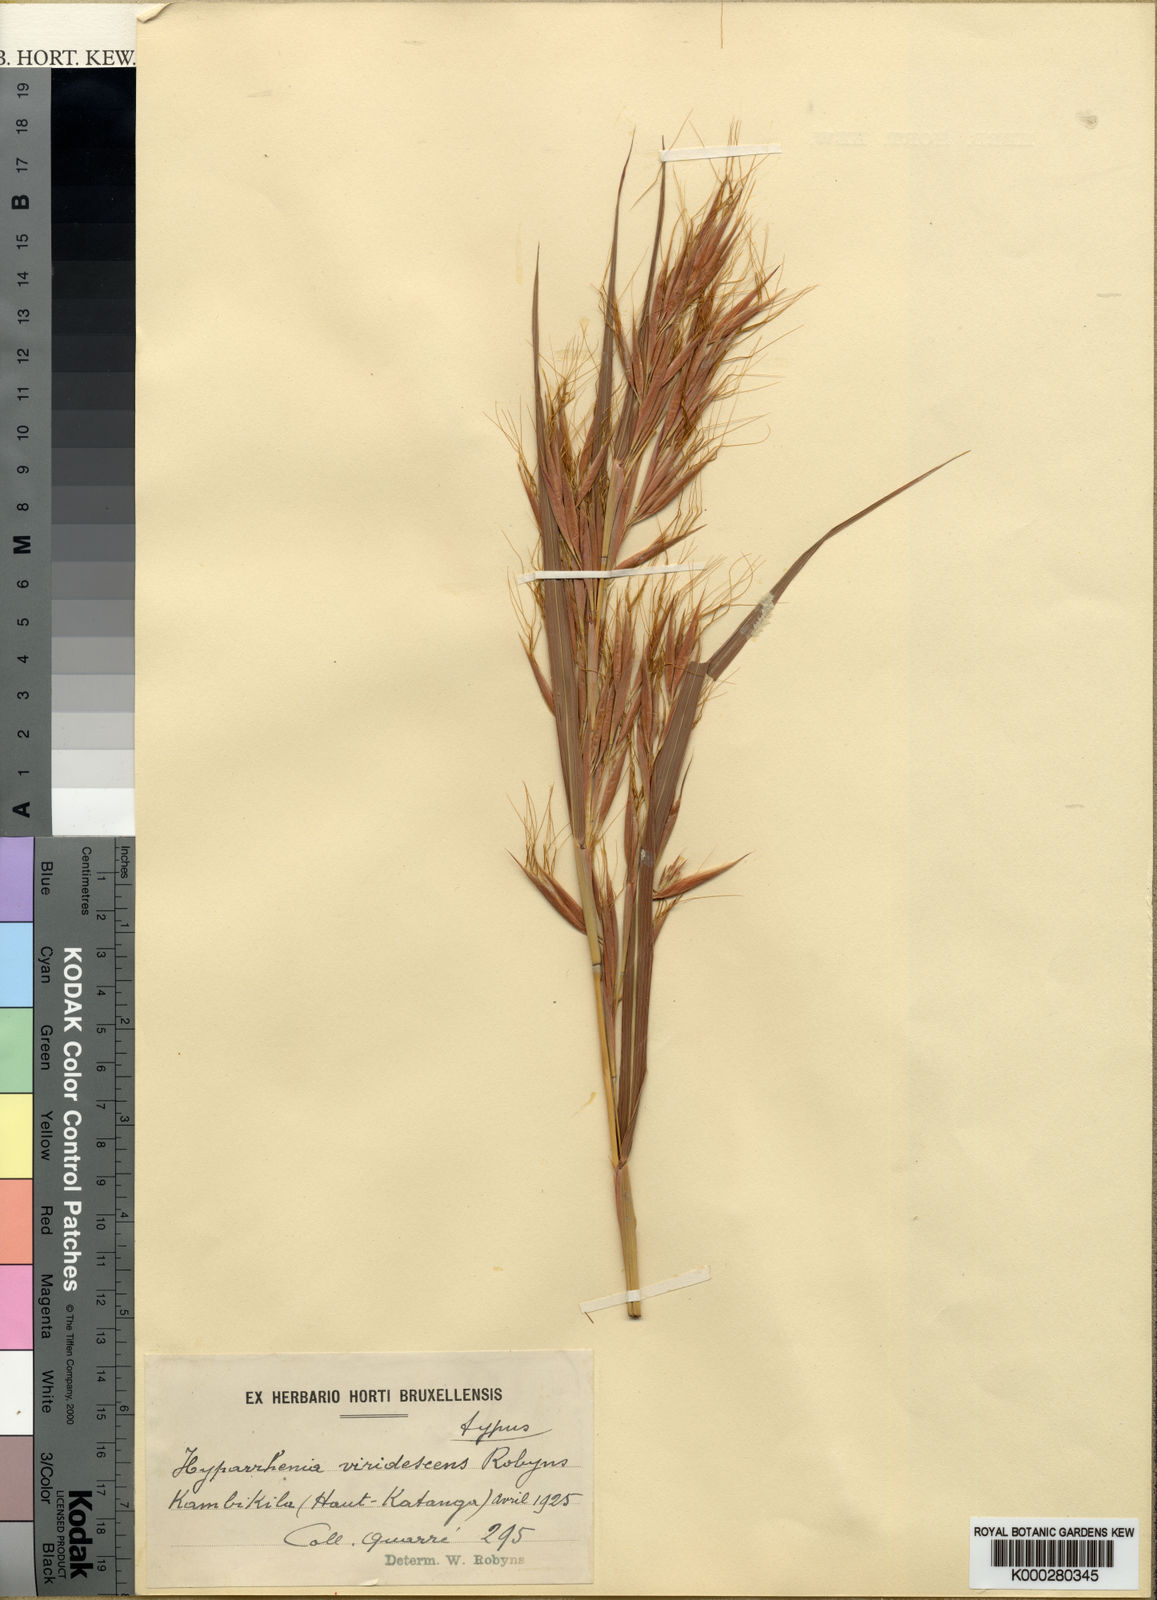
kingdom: Plantae
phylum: Tracheophyta
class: Liliopsida
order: Poales
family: Poaceae
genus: Hyparrhenia
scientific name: Hyparrhenia schimperi
